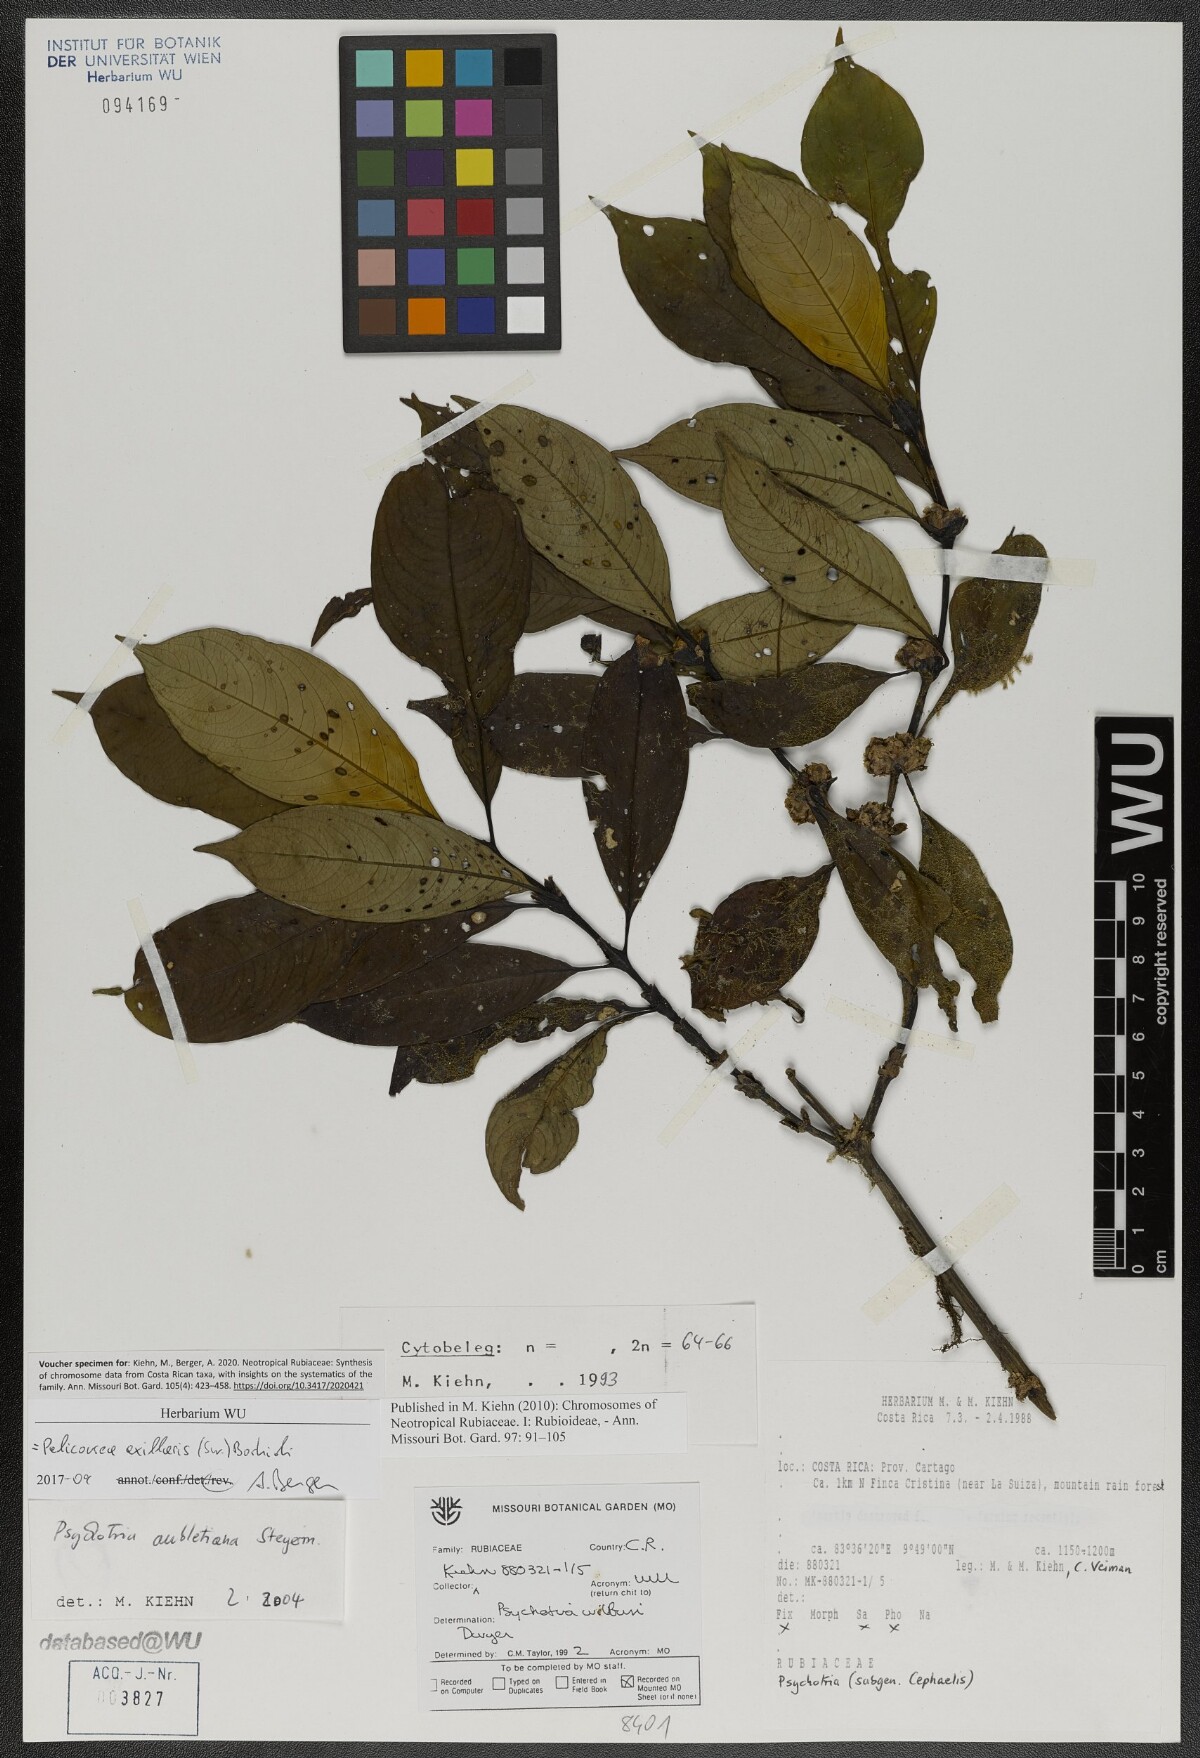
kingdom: Plantae
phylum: Tracheophyta
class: Magnoliopsida
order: Gentianales
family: Rubiaceae
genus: Palicourea
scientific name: Palicourea axillaris
